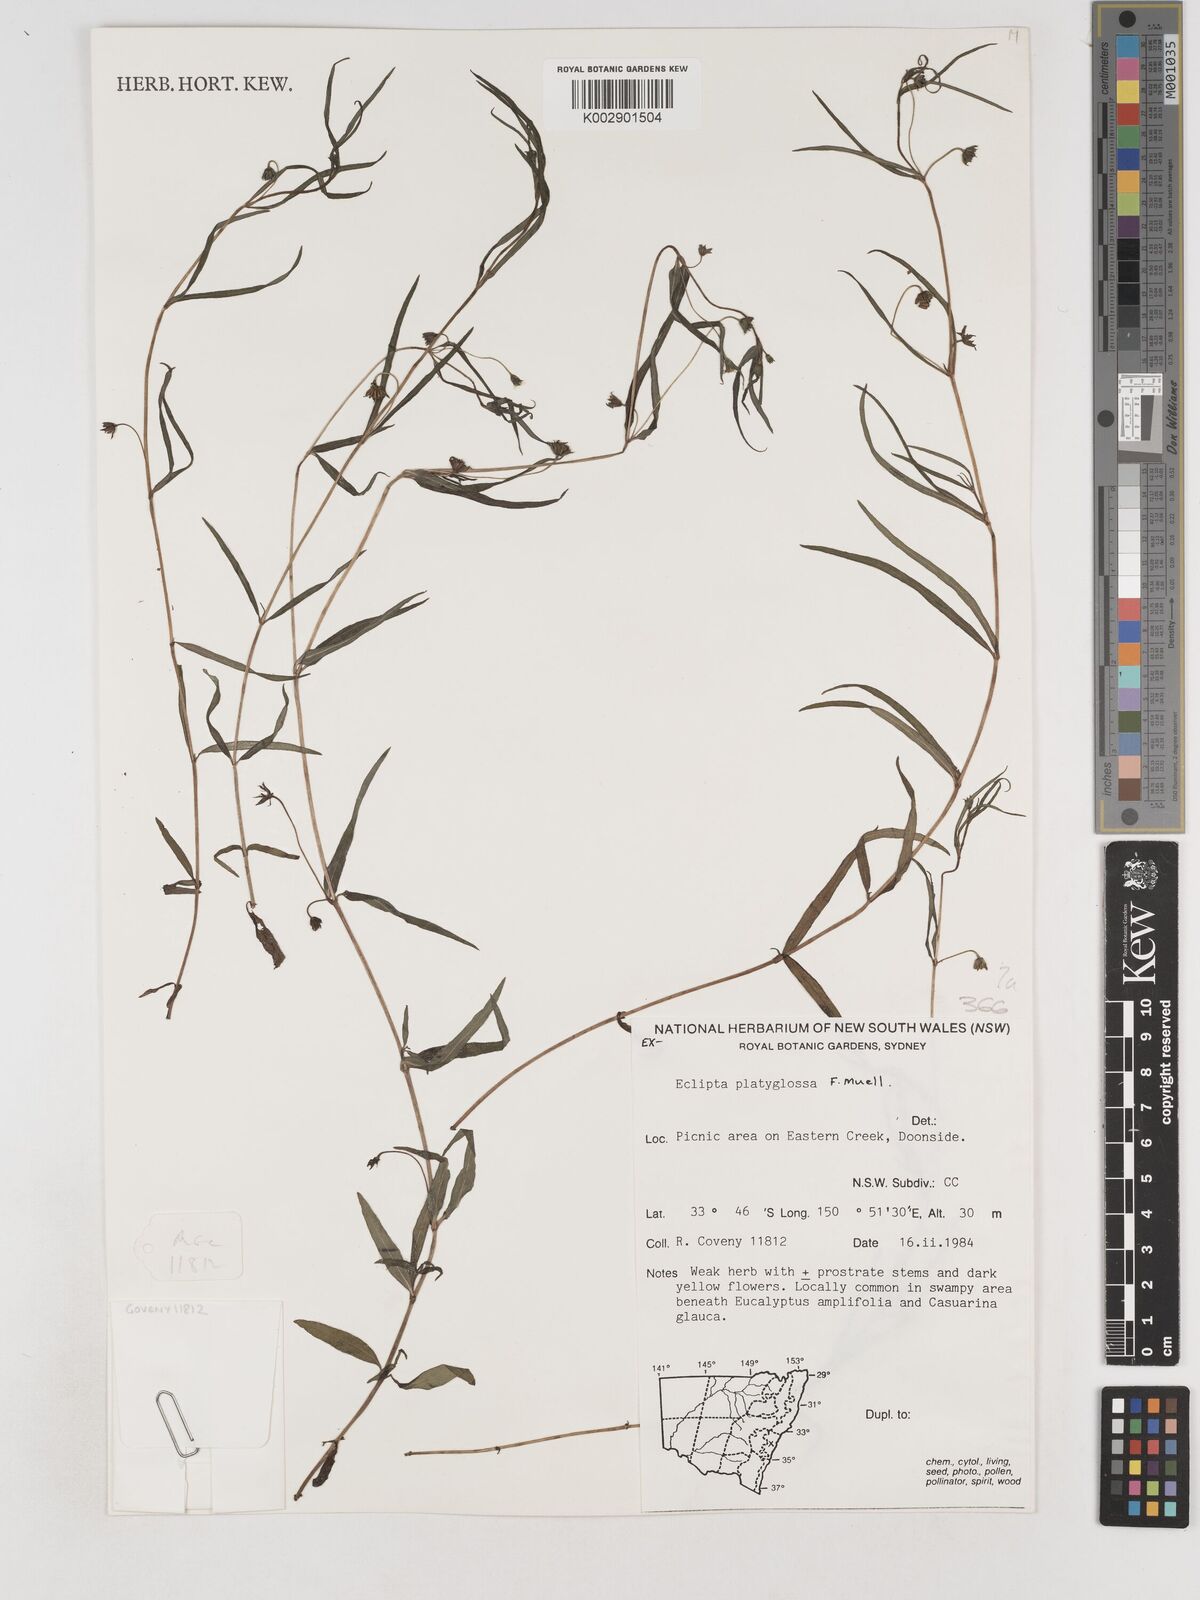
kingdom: Plantae
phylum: Tracheophyta
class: Magnoliopsida
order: Asterales
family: Asteraceae
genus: Eclipta
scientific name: Eclipta platyglossa
